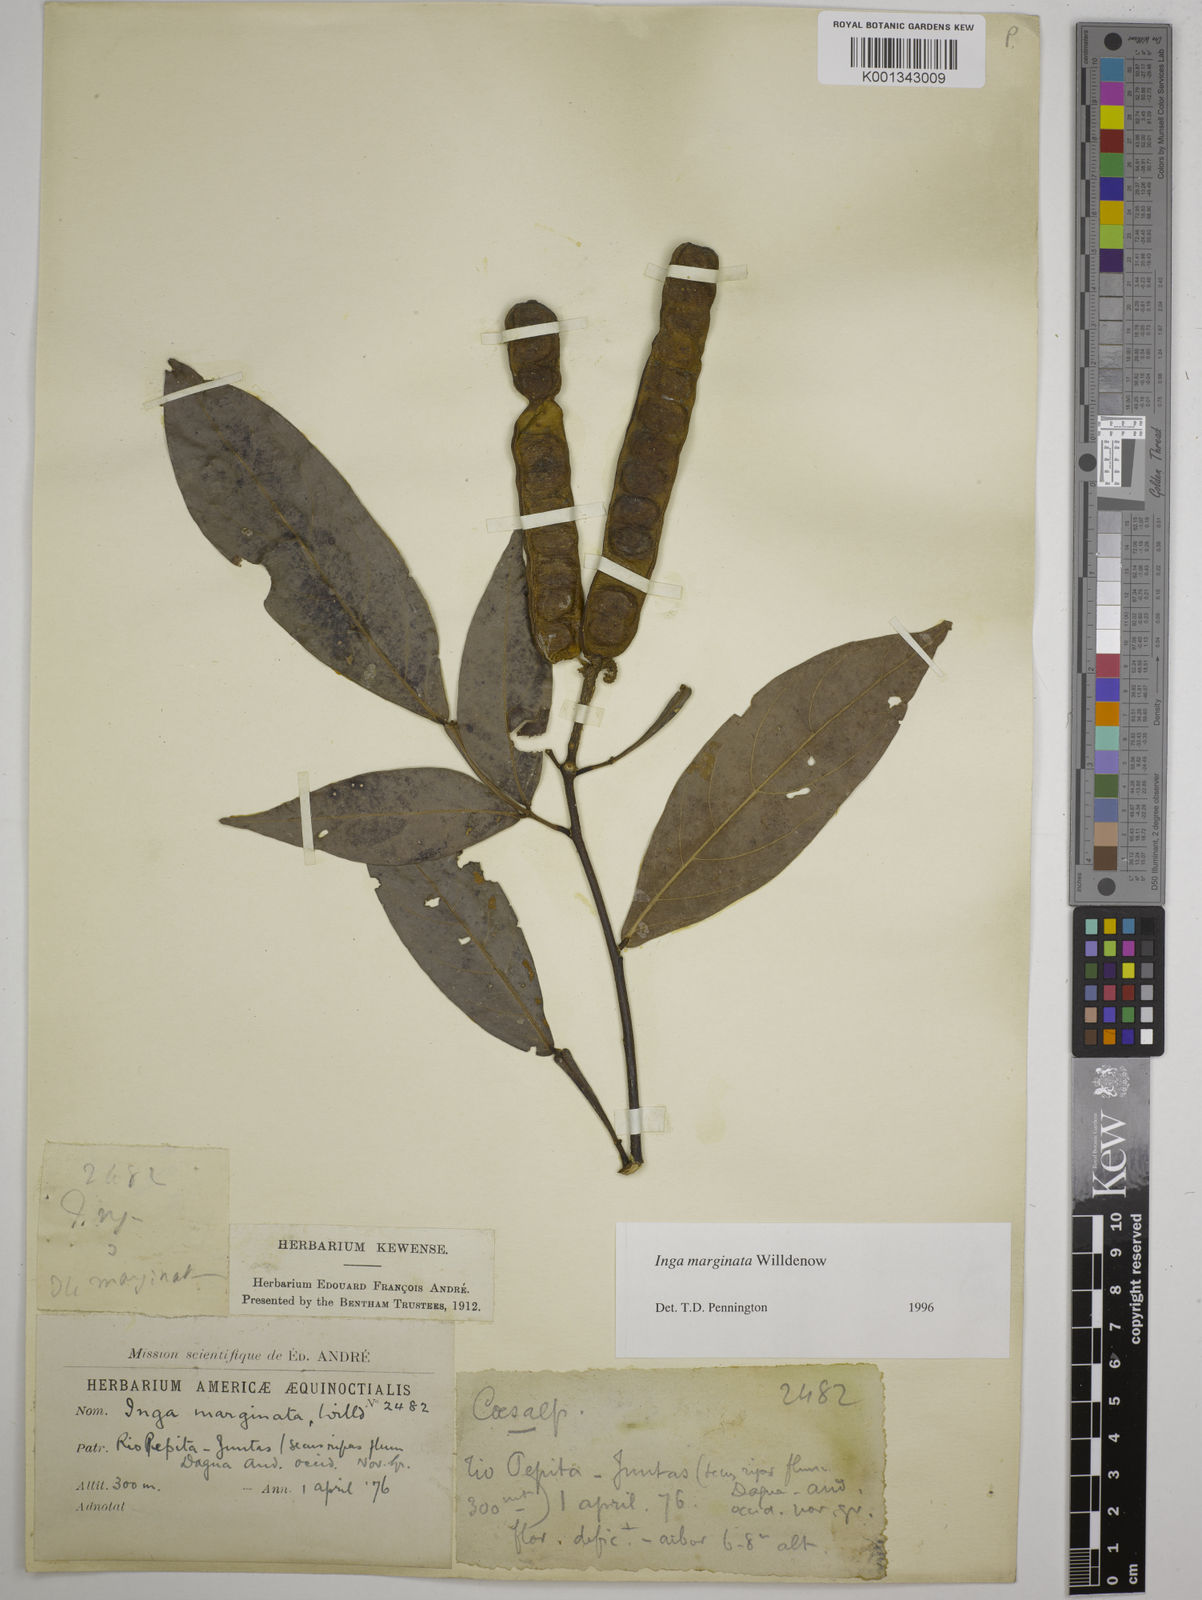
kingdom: Plantae
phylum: Tracheophyta
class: Magnoliopsida
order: Fabales
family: Fabaceae
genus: Inga
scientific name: Inga marginata
